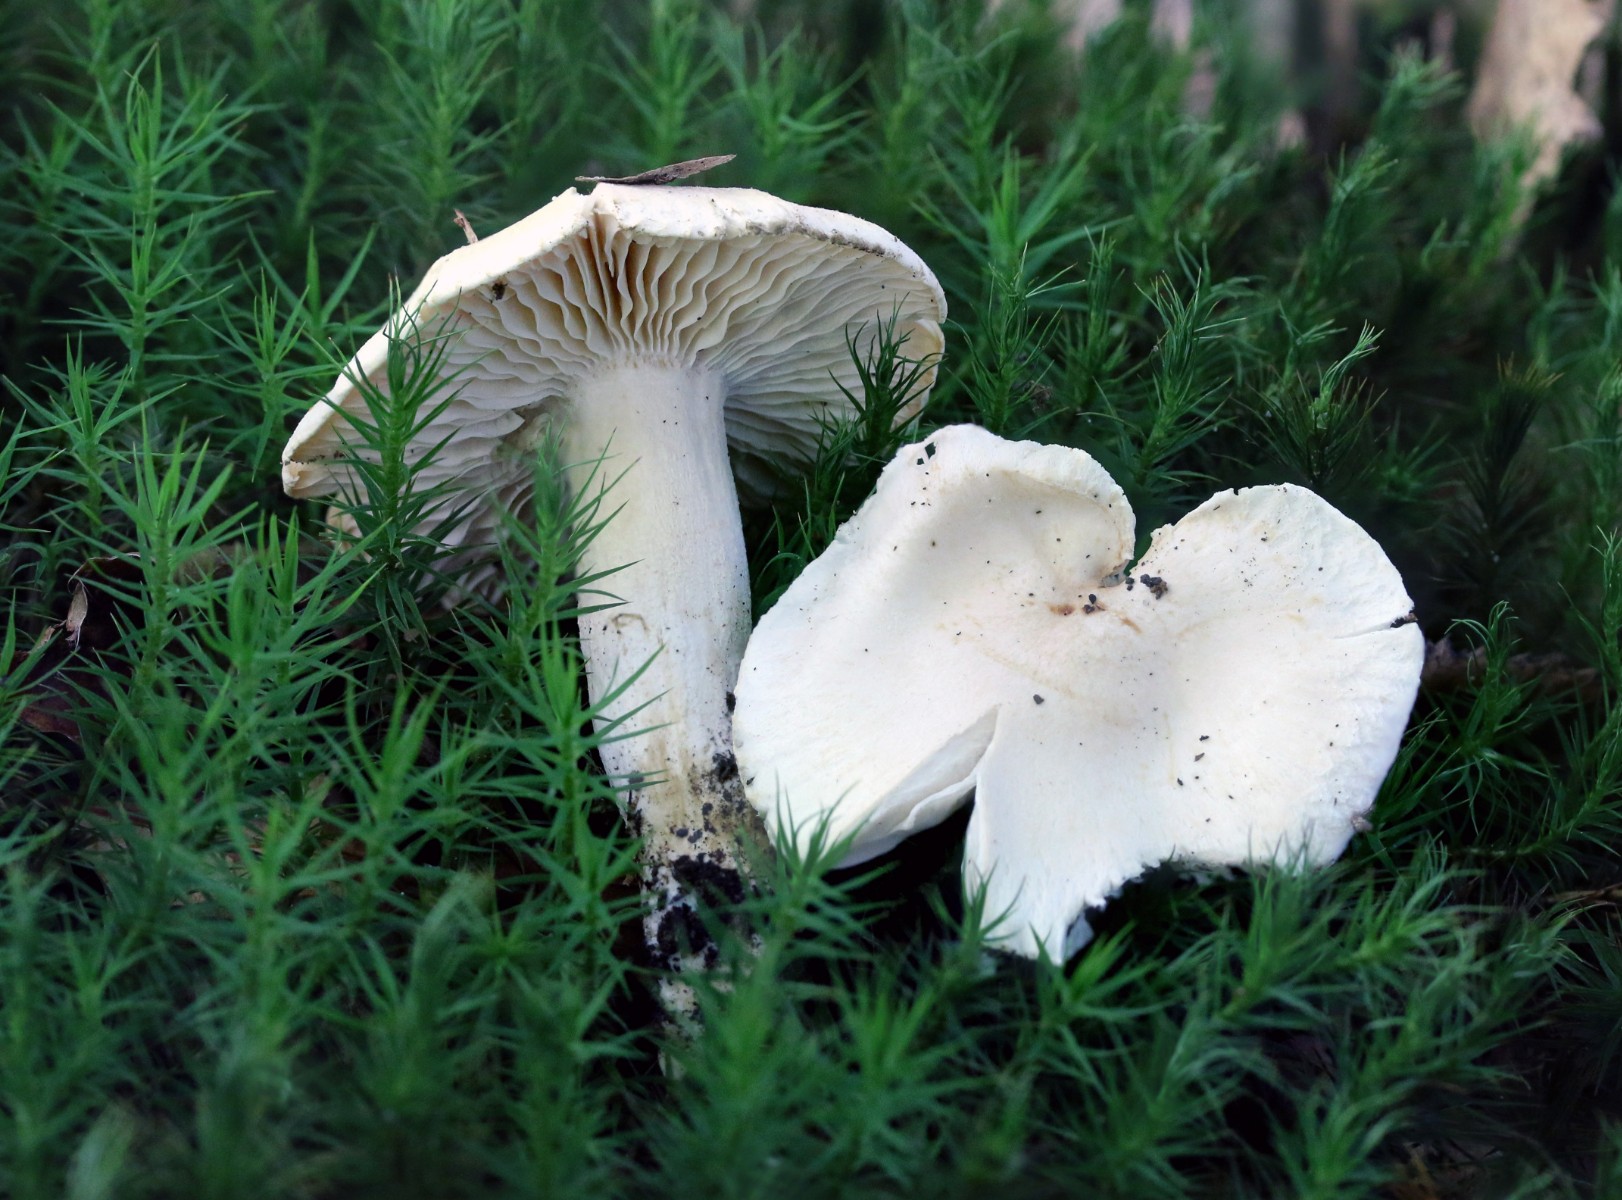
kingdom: Fungi
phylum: Basidiomycota
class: Agaricomycetes
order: Agaricales
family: Hygrophoraceae
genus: Hygrophorus
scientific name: Hygrophorus penarius
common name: spiselig sneglehat
